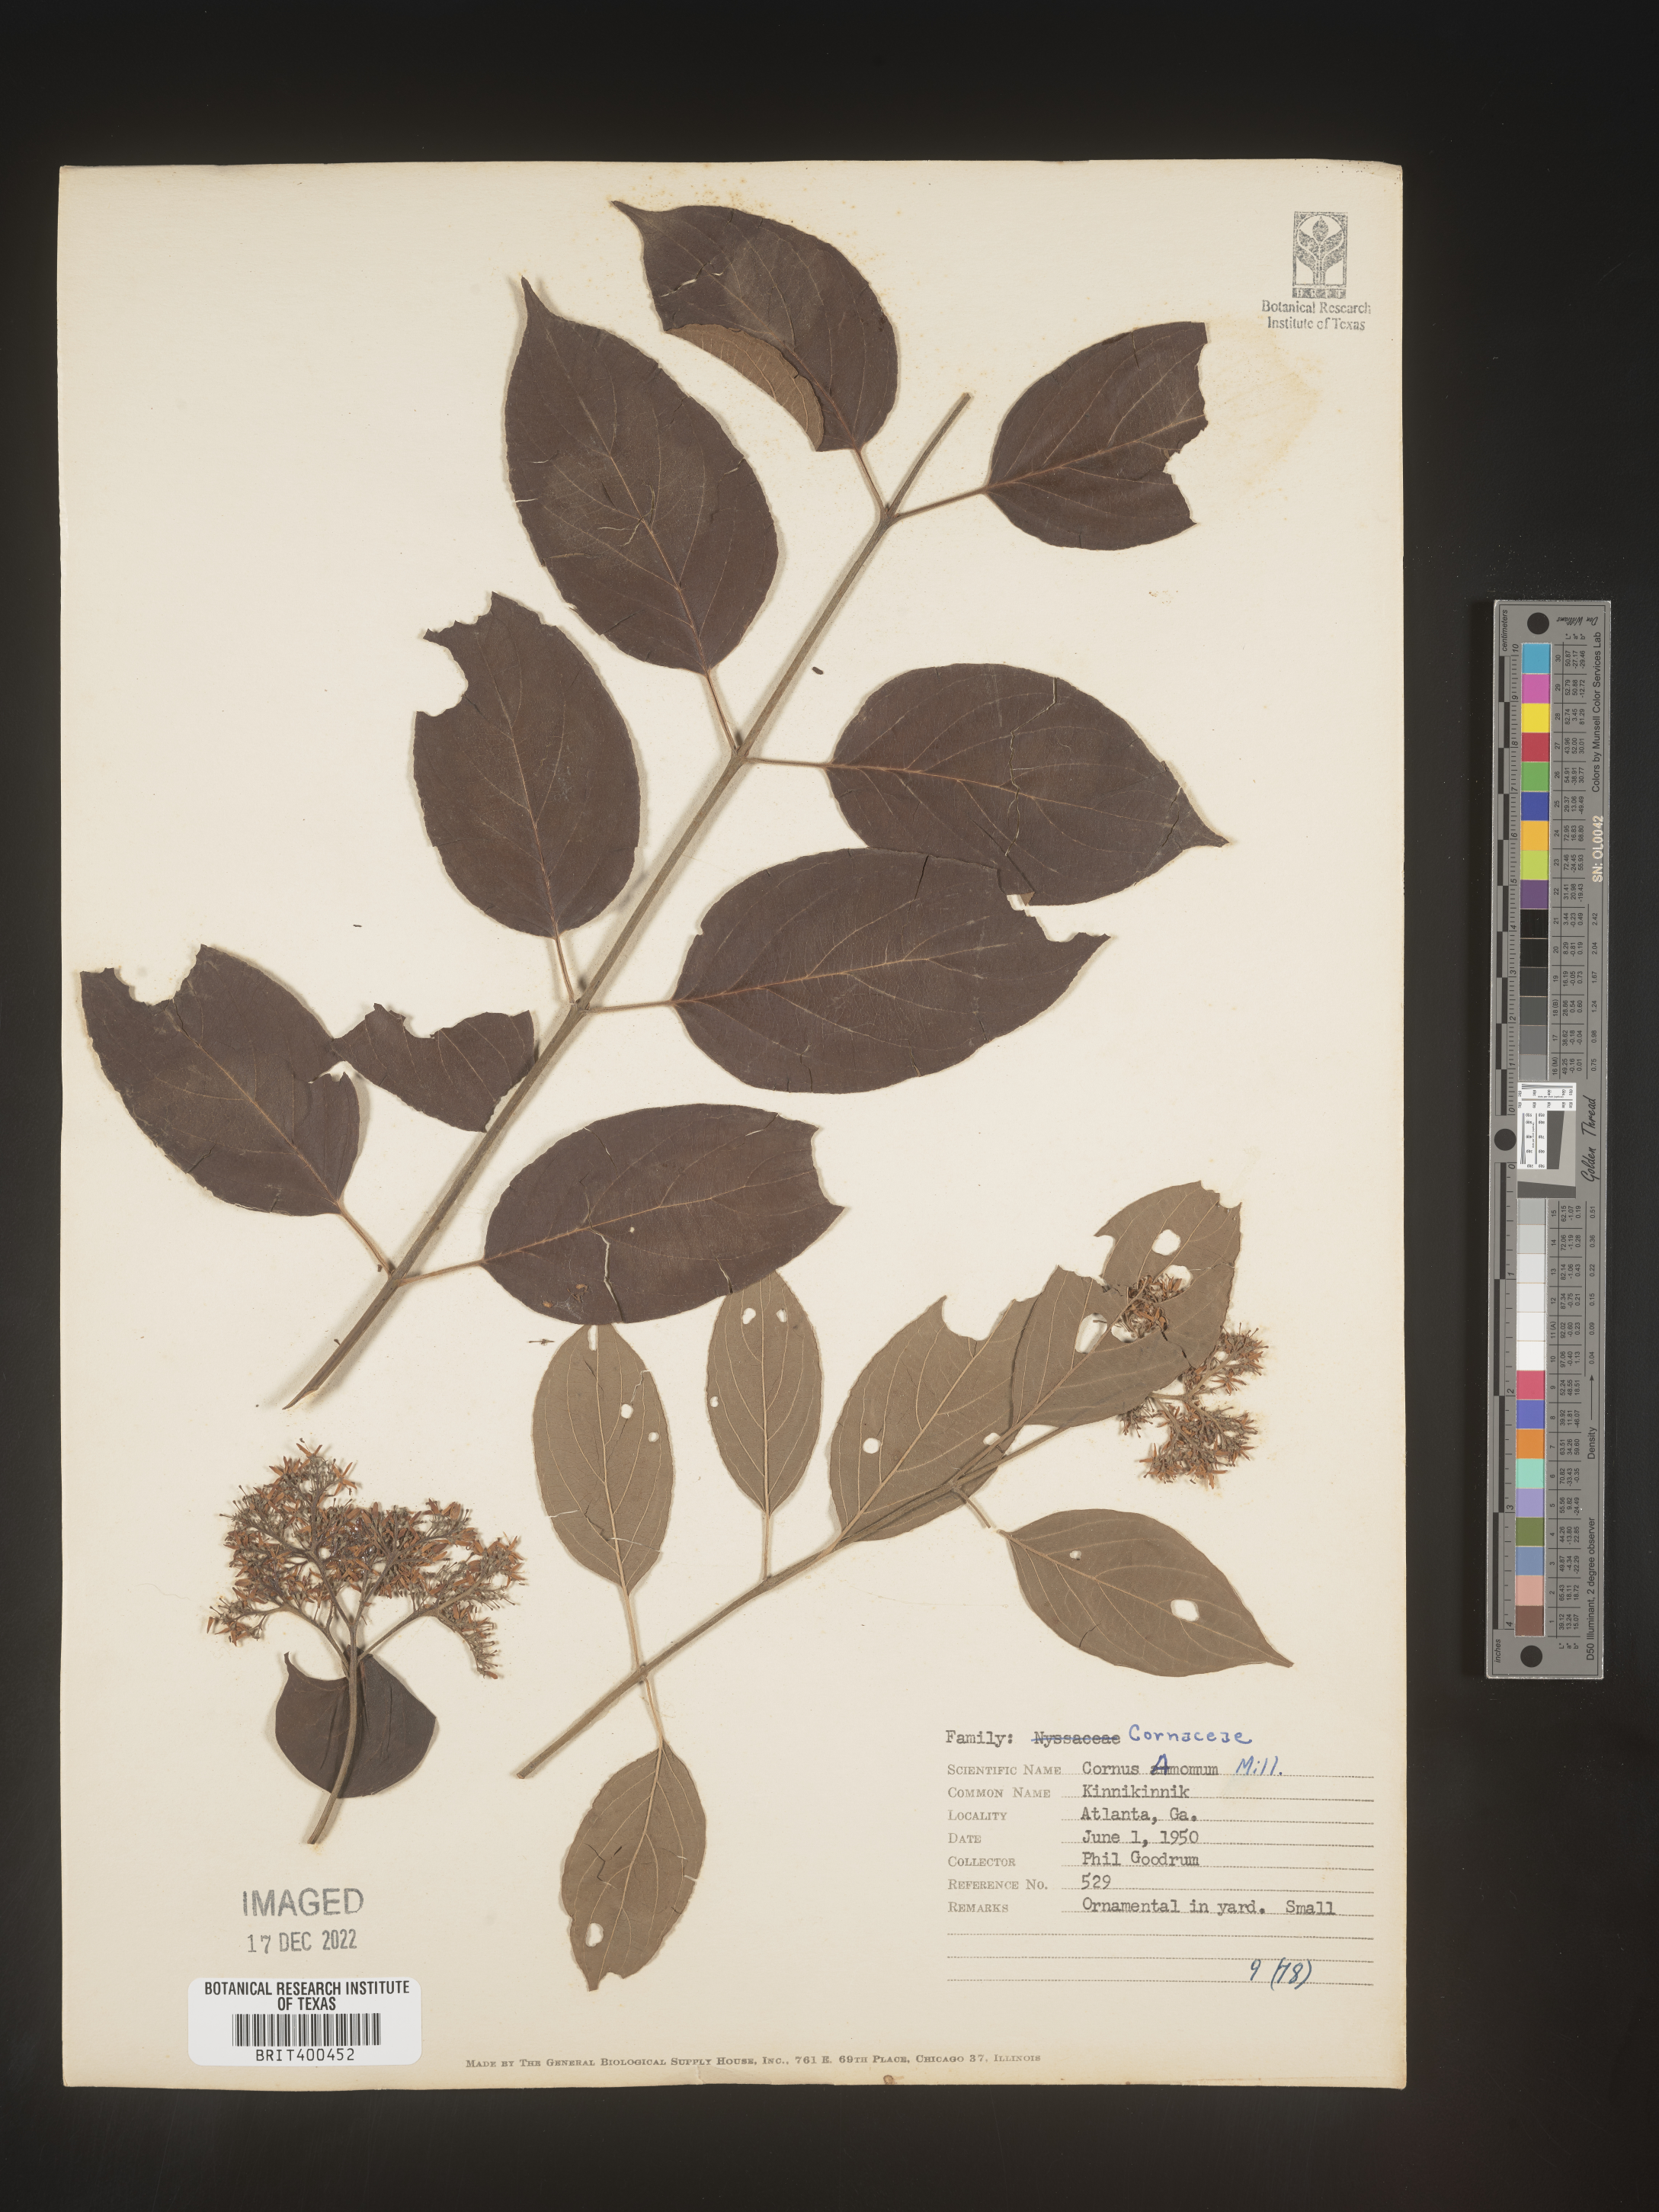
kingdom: Plantae
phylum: Tracheophyta
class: Magnoliopsida
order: Cornales
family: Cornaceae
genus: Cornus
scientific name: Cornus amomum
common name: Silky dogwood
